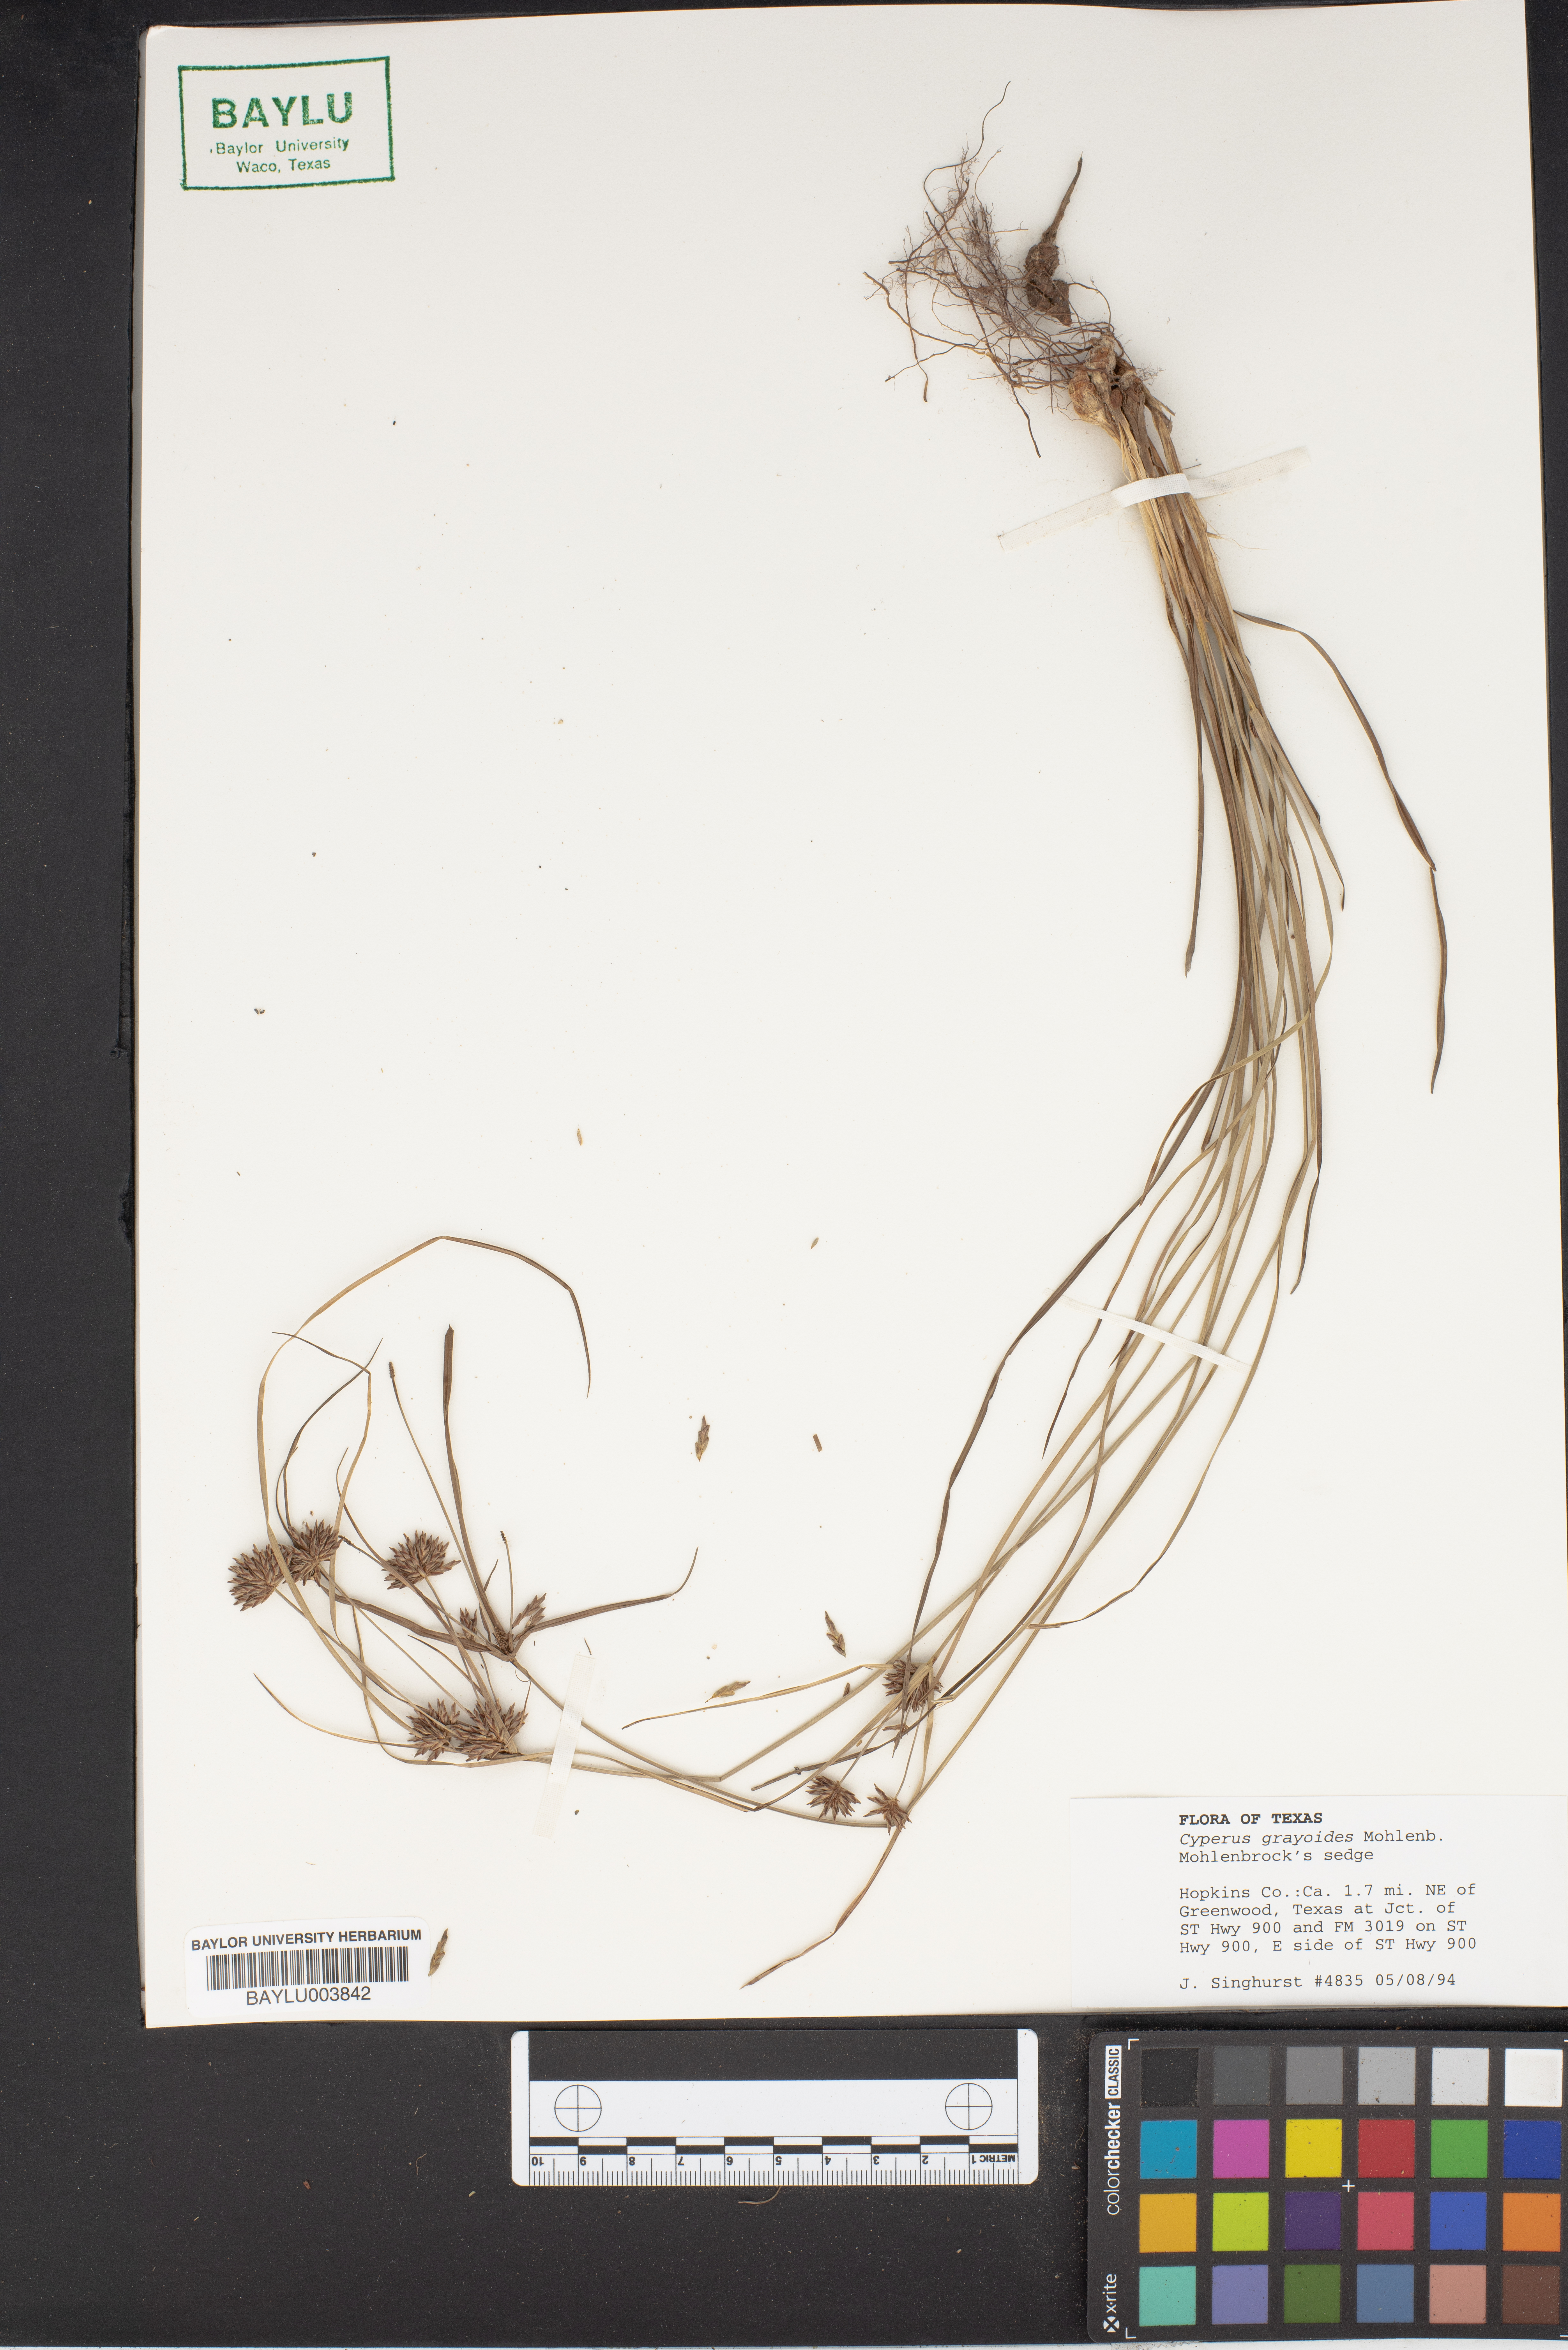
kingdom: Plantae
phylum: Tracheophyta
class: Liliopsida
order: Poales
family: Cyperaceae
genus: Cyperus
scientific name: Cyperus grayioides
